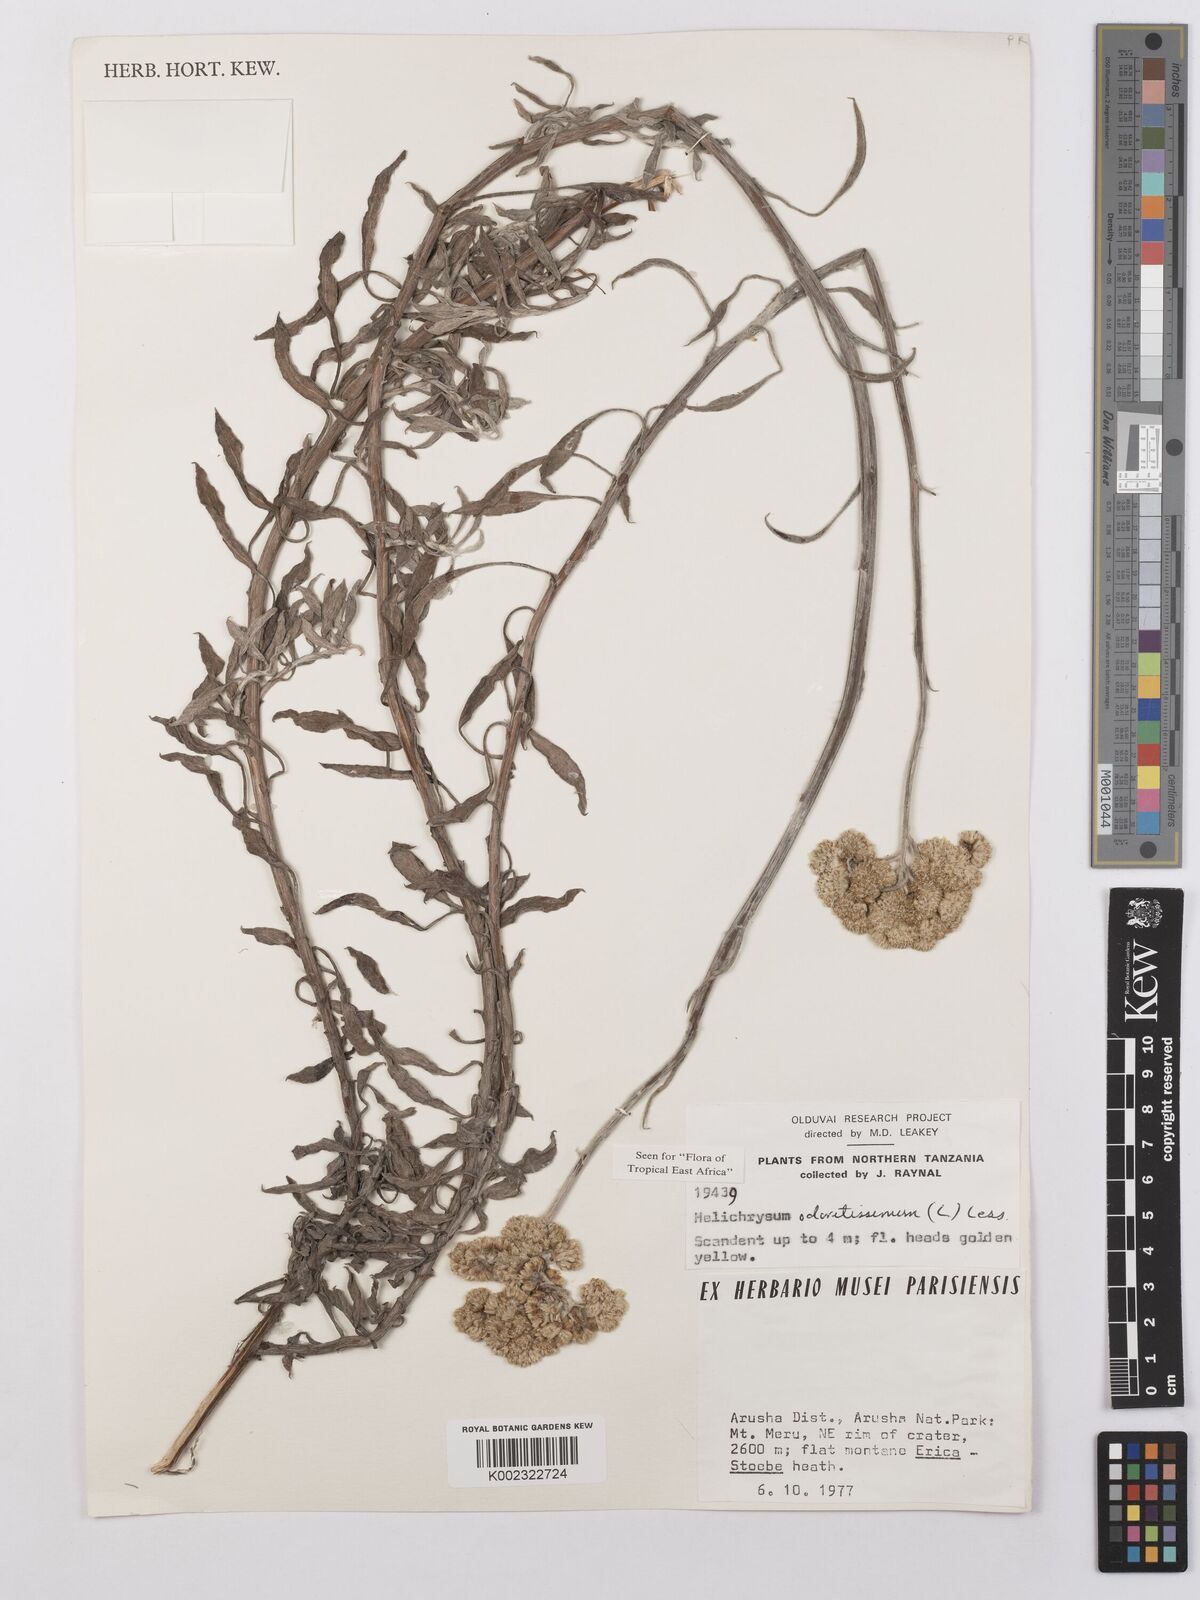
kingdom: Plantae
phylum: Tracheophyta
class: Magnoliopsida
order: Asterales
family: Asteraceae
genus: Helichrysum
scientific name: Helichrysum odoratissimum
